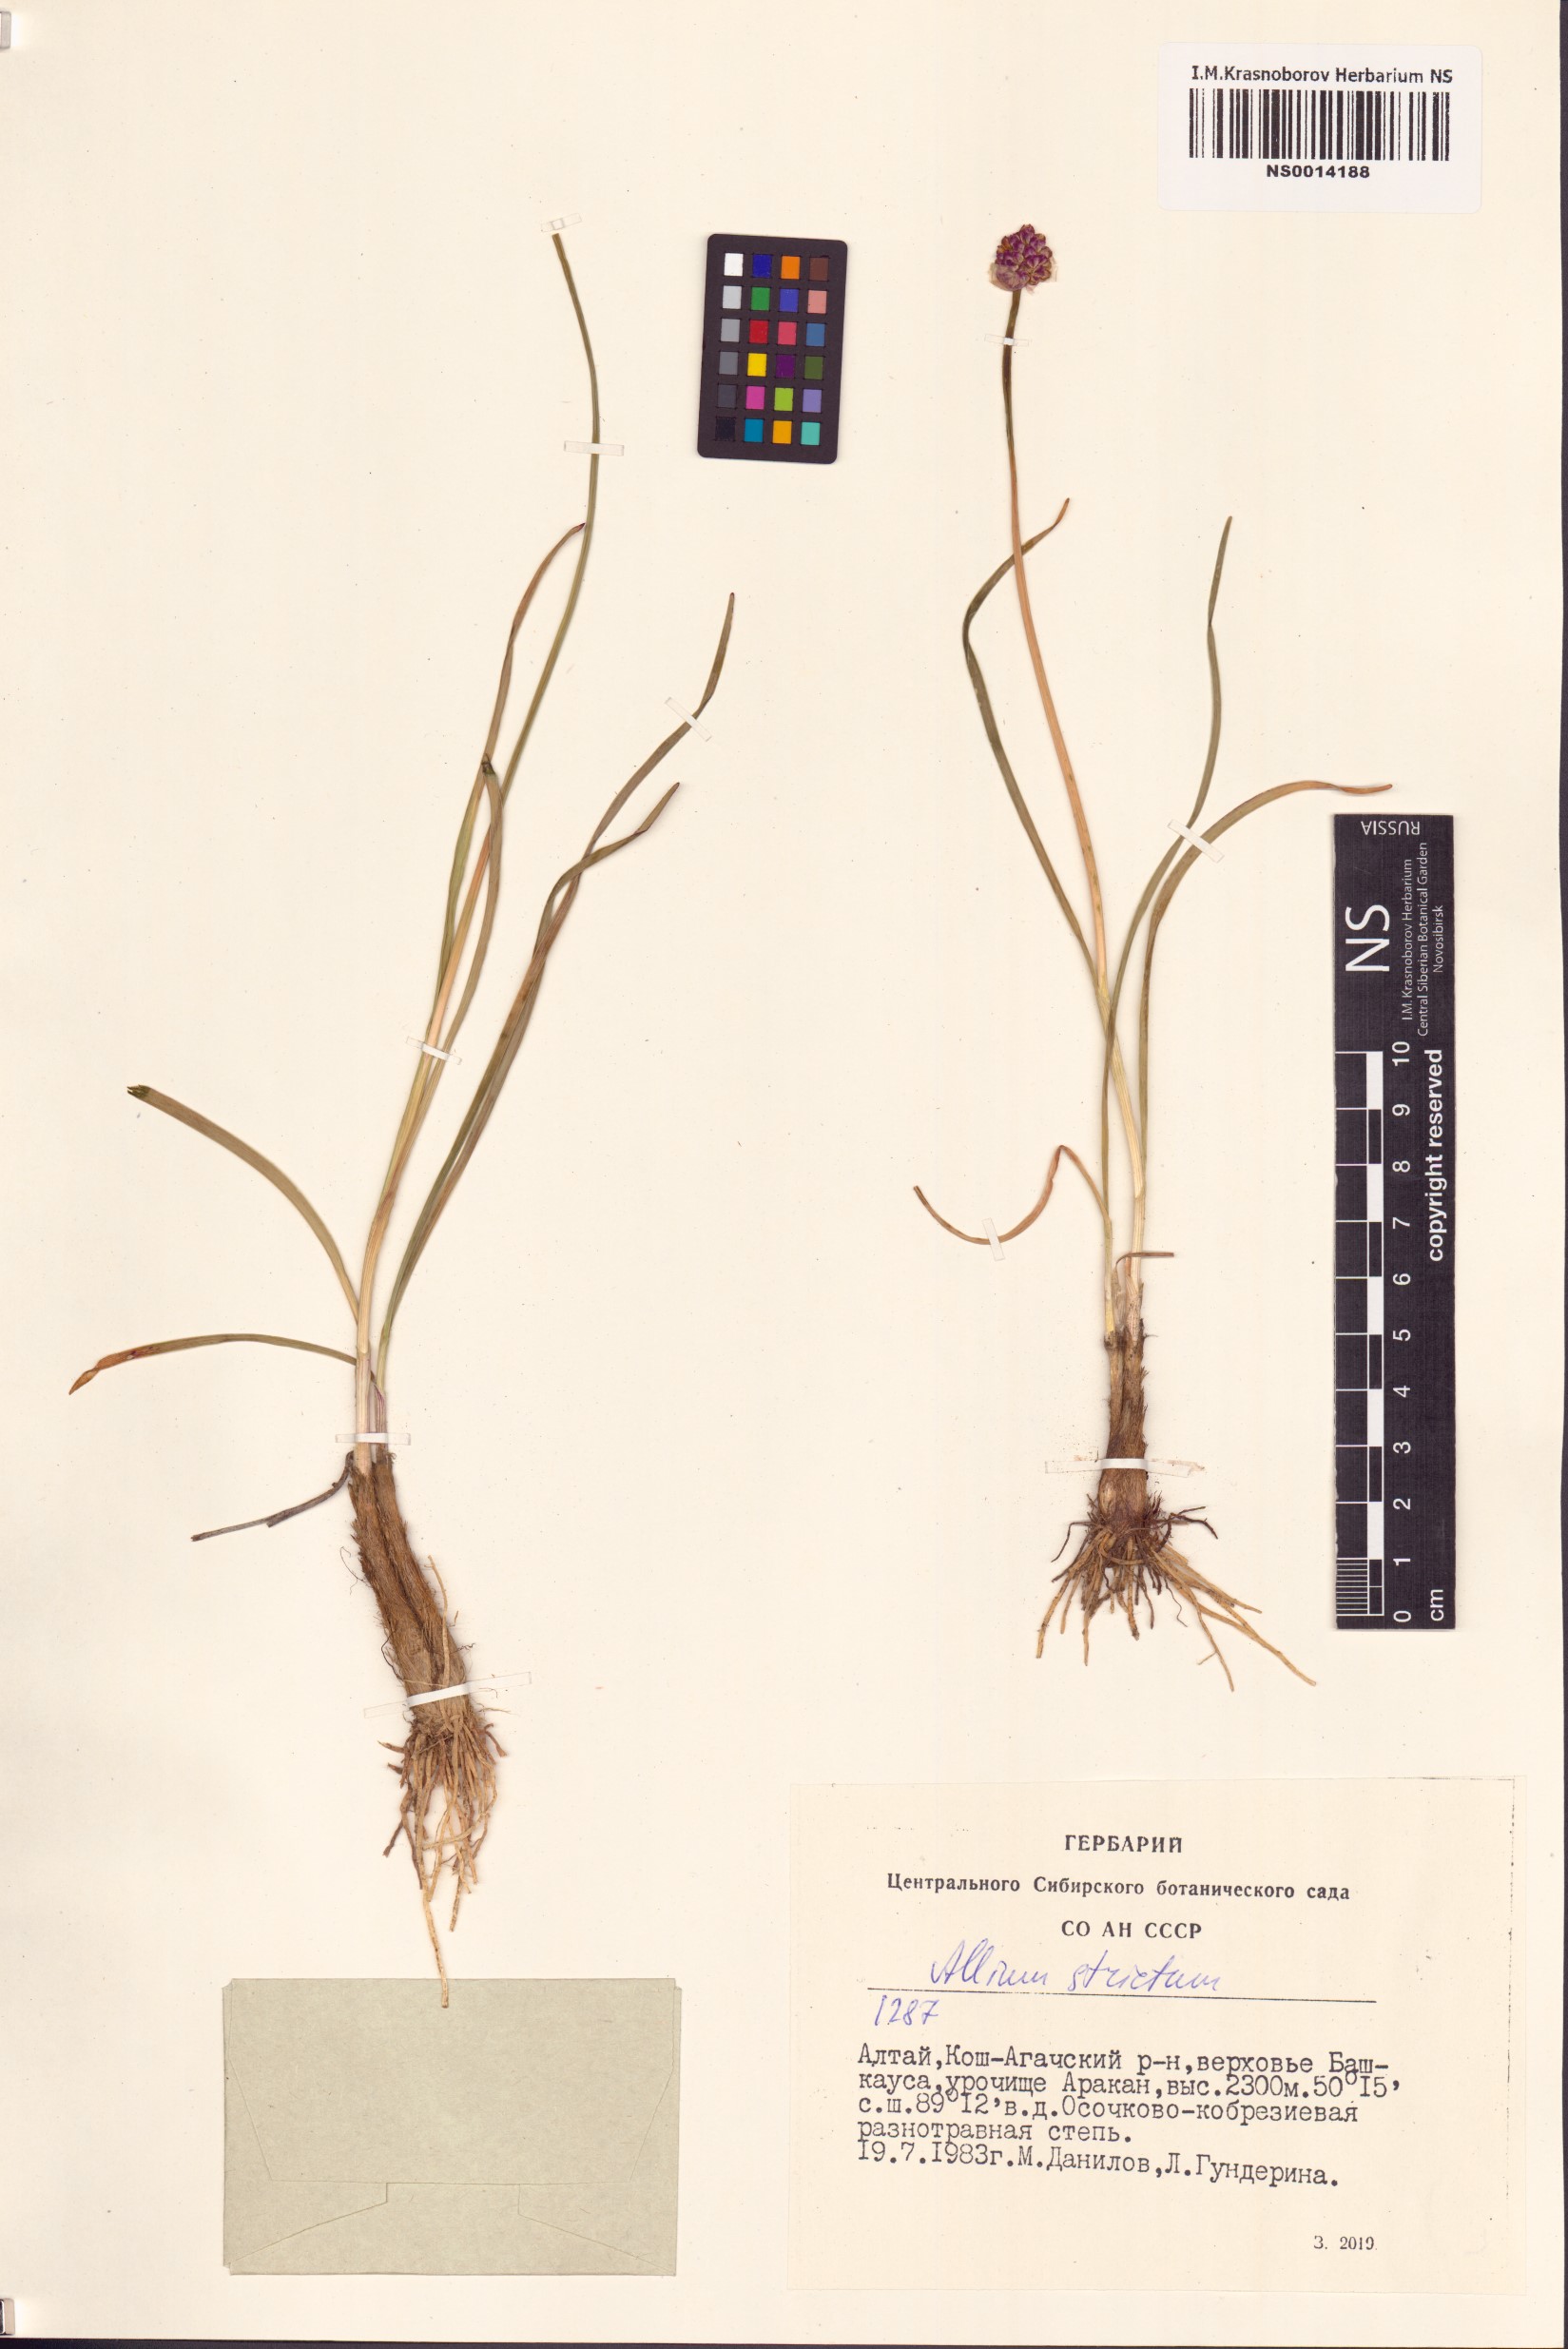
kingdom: Plantae
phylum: Tracheophyta
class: Liliopsida
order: Asparagales
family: Amaryllidaceae
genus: Allium
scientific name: Allium strictum
